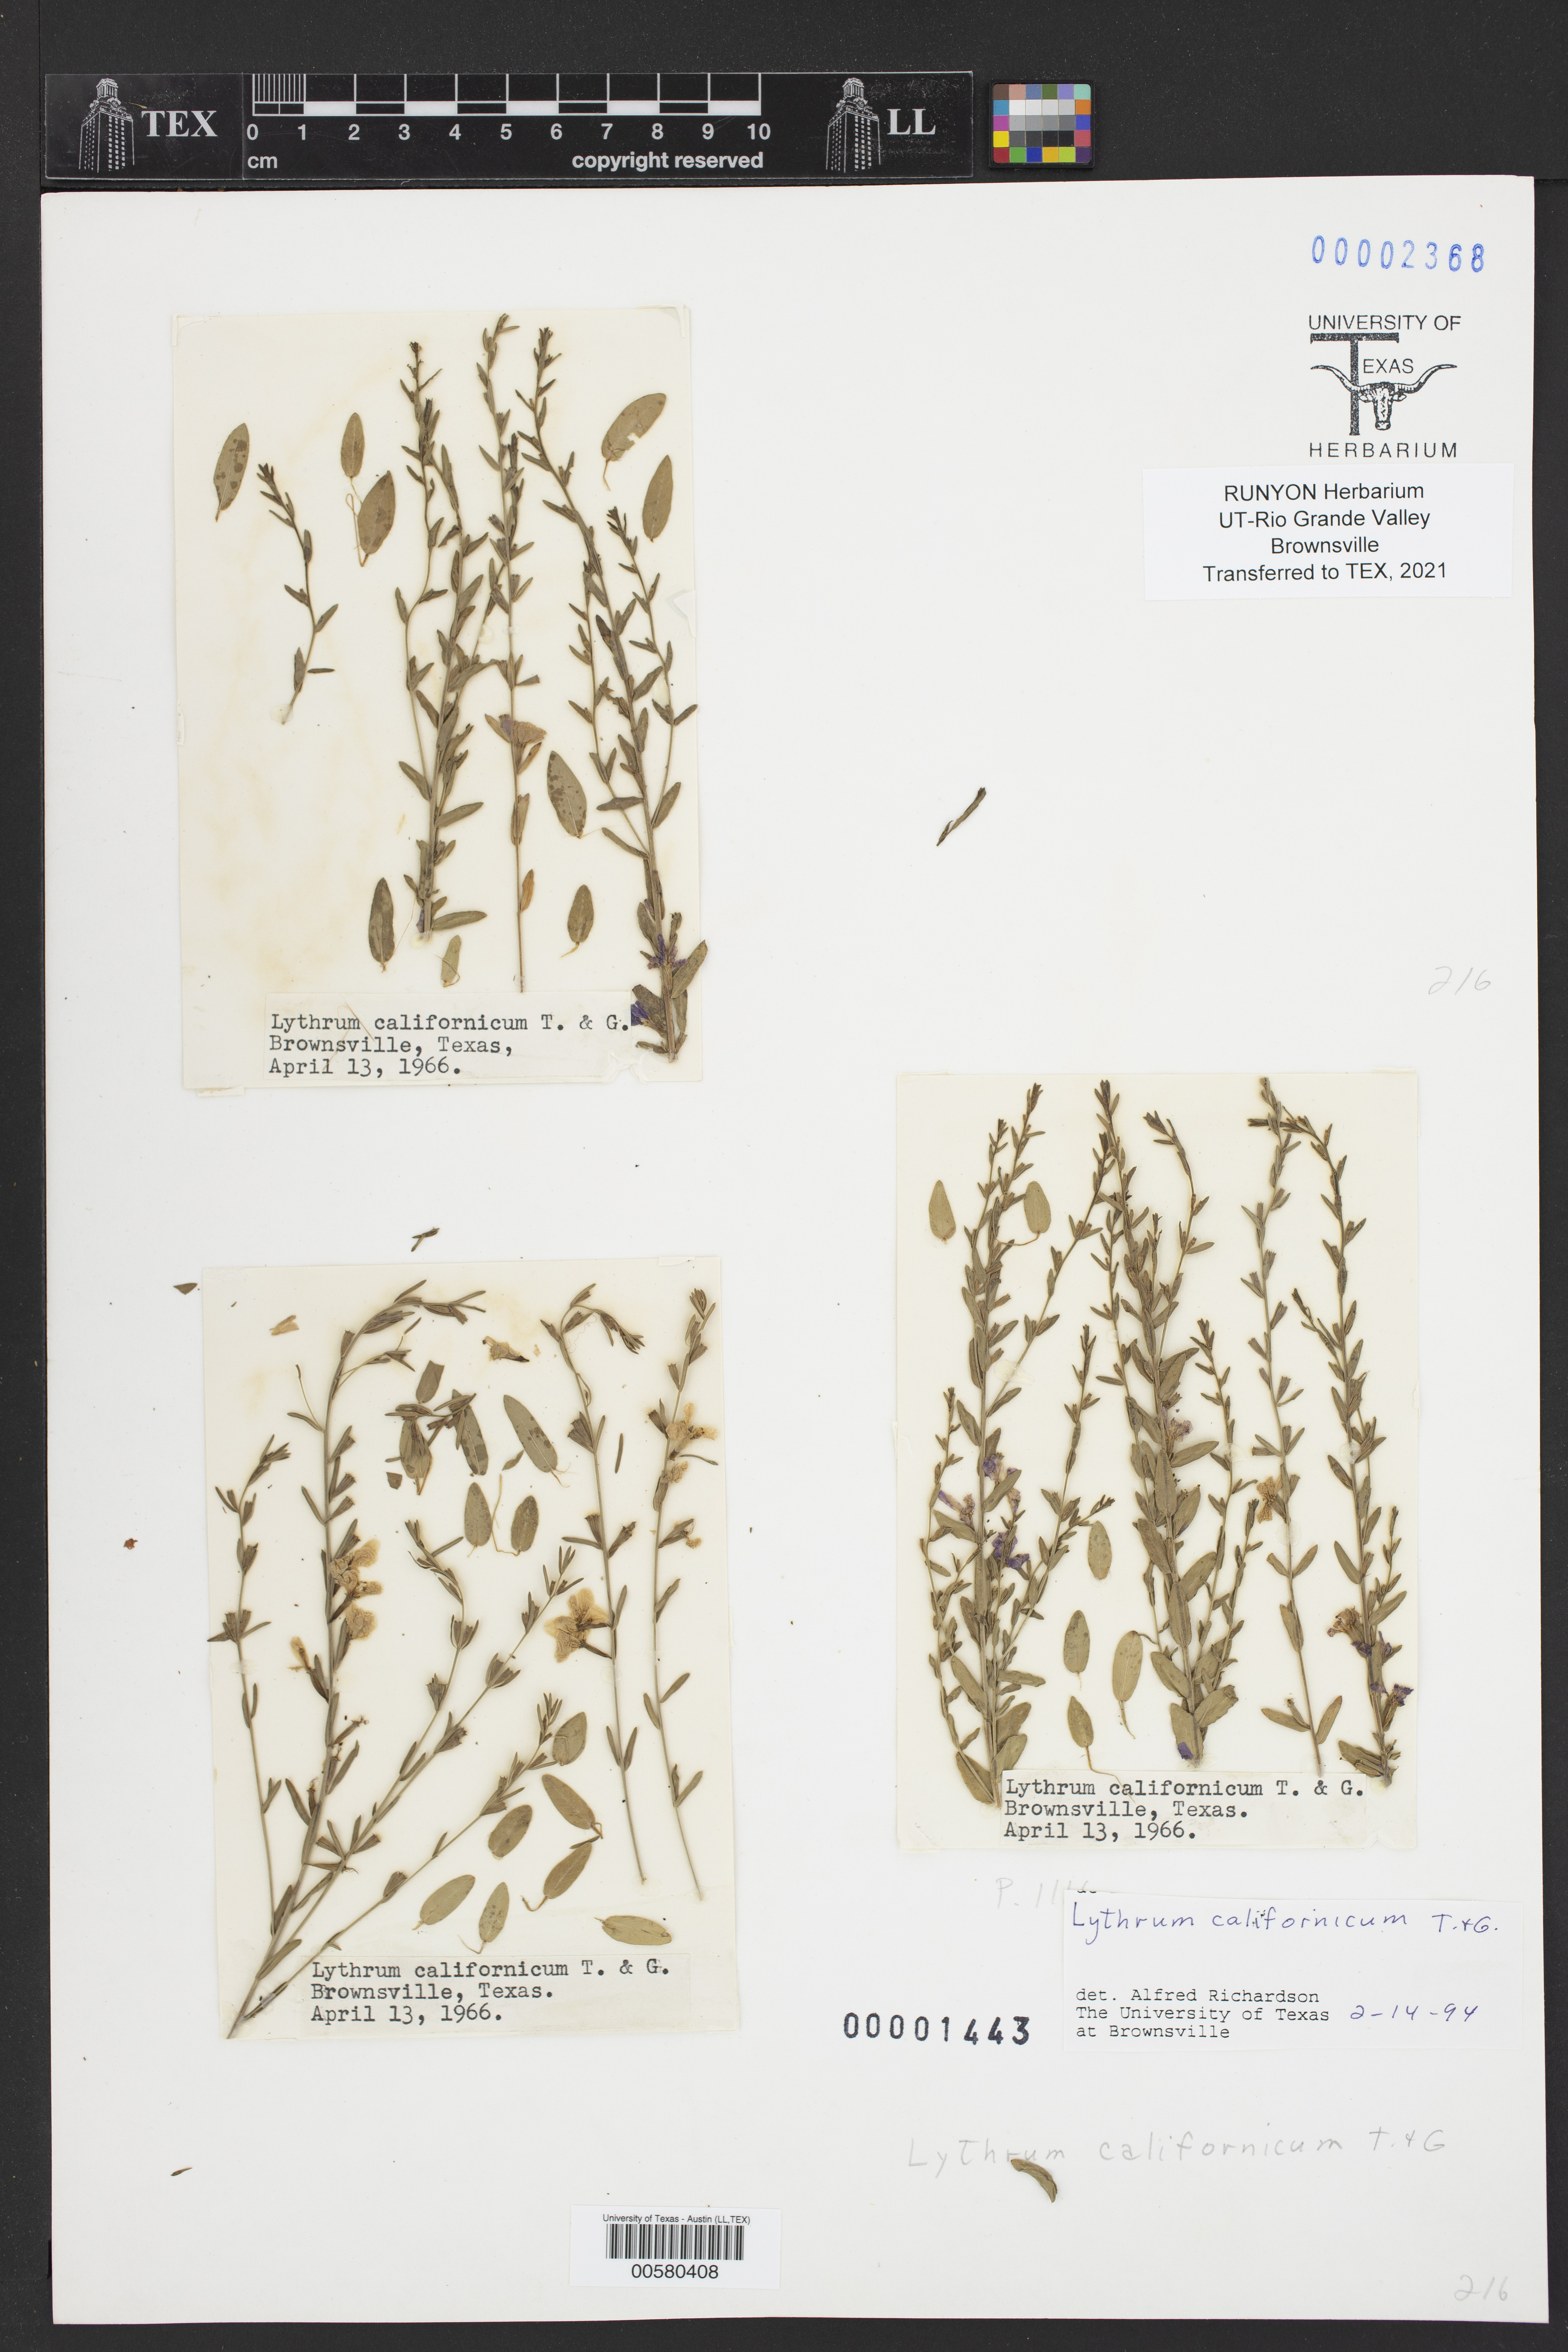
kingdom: Plantae
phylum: Tracheophyta
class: Magnoliopsida
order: Myrtales
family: Lythraceae
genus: Lythrum
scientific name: Lythrum californicum
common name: California loosestrife
